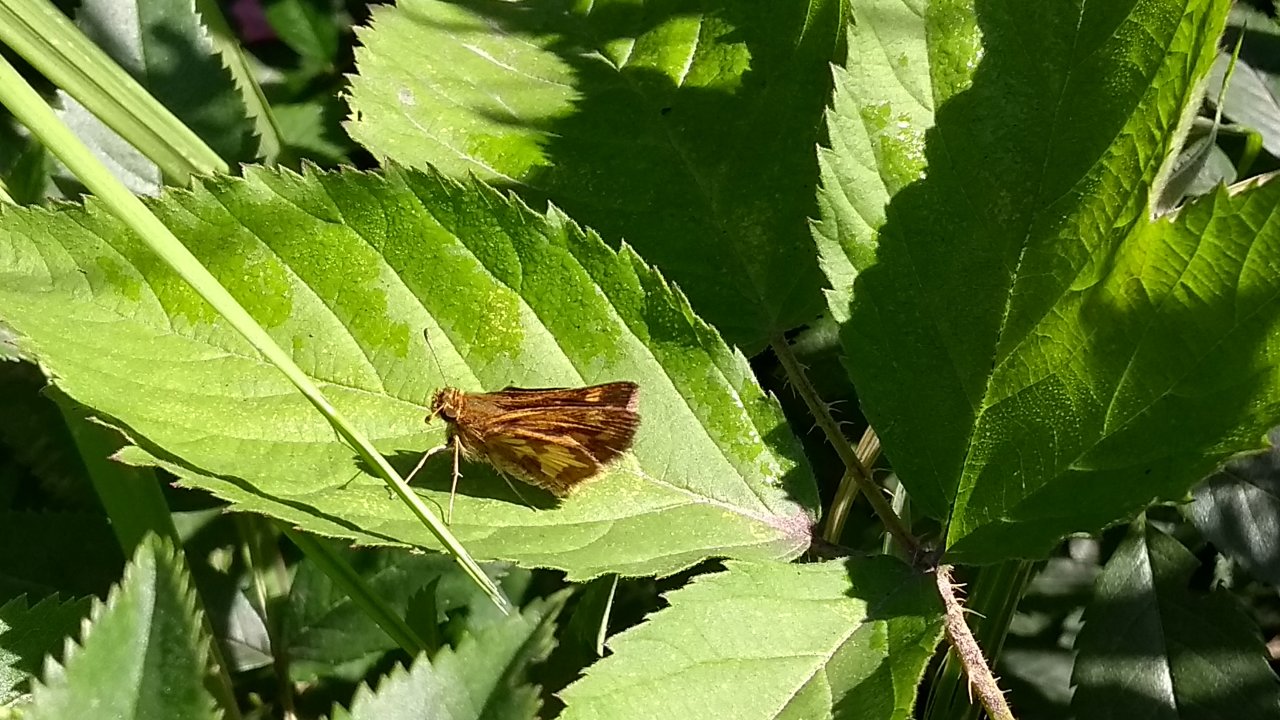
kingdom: Animalia
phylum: Arthropoda
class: Insecta
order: Lepidoptera
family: Hesperiidae
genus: Polites
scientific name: Polites coras
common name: Peck's Skipper
